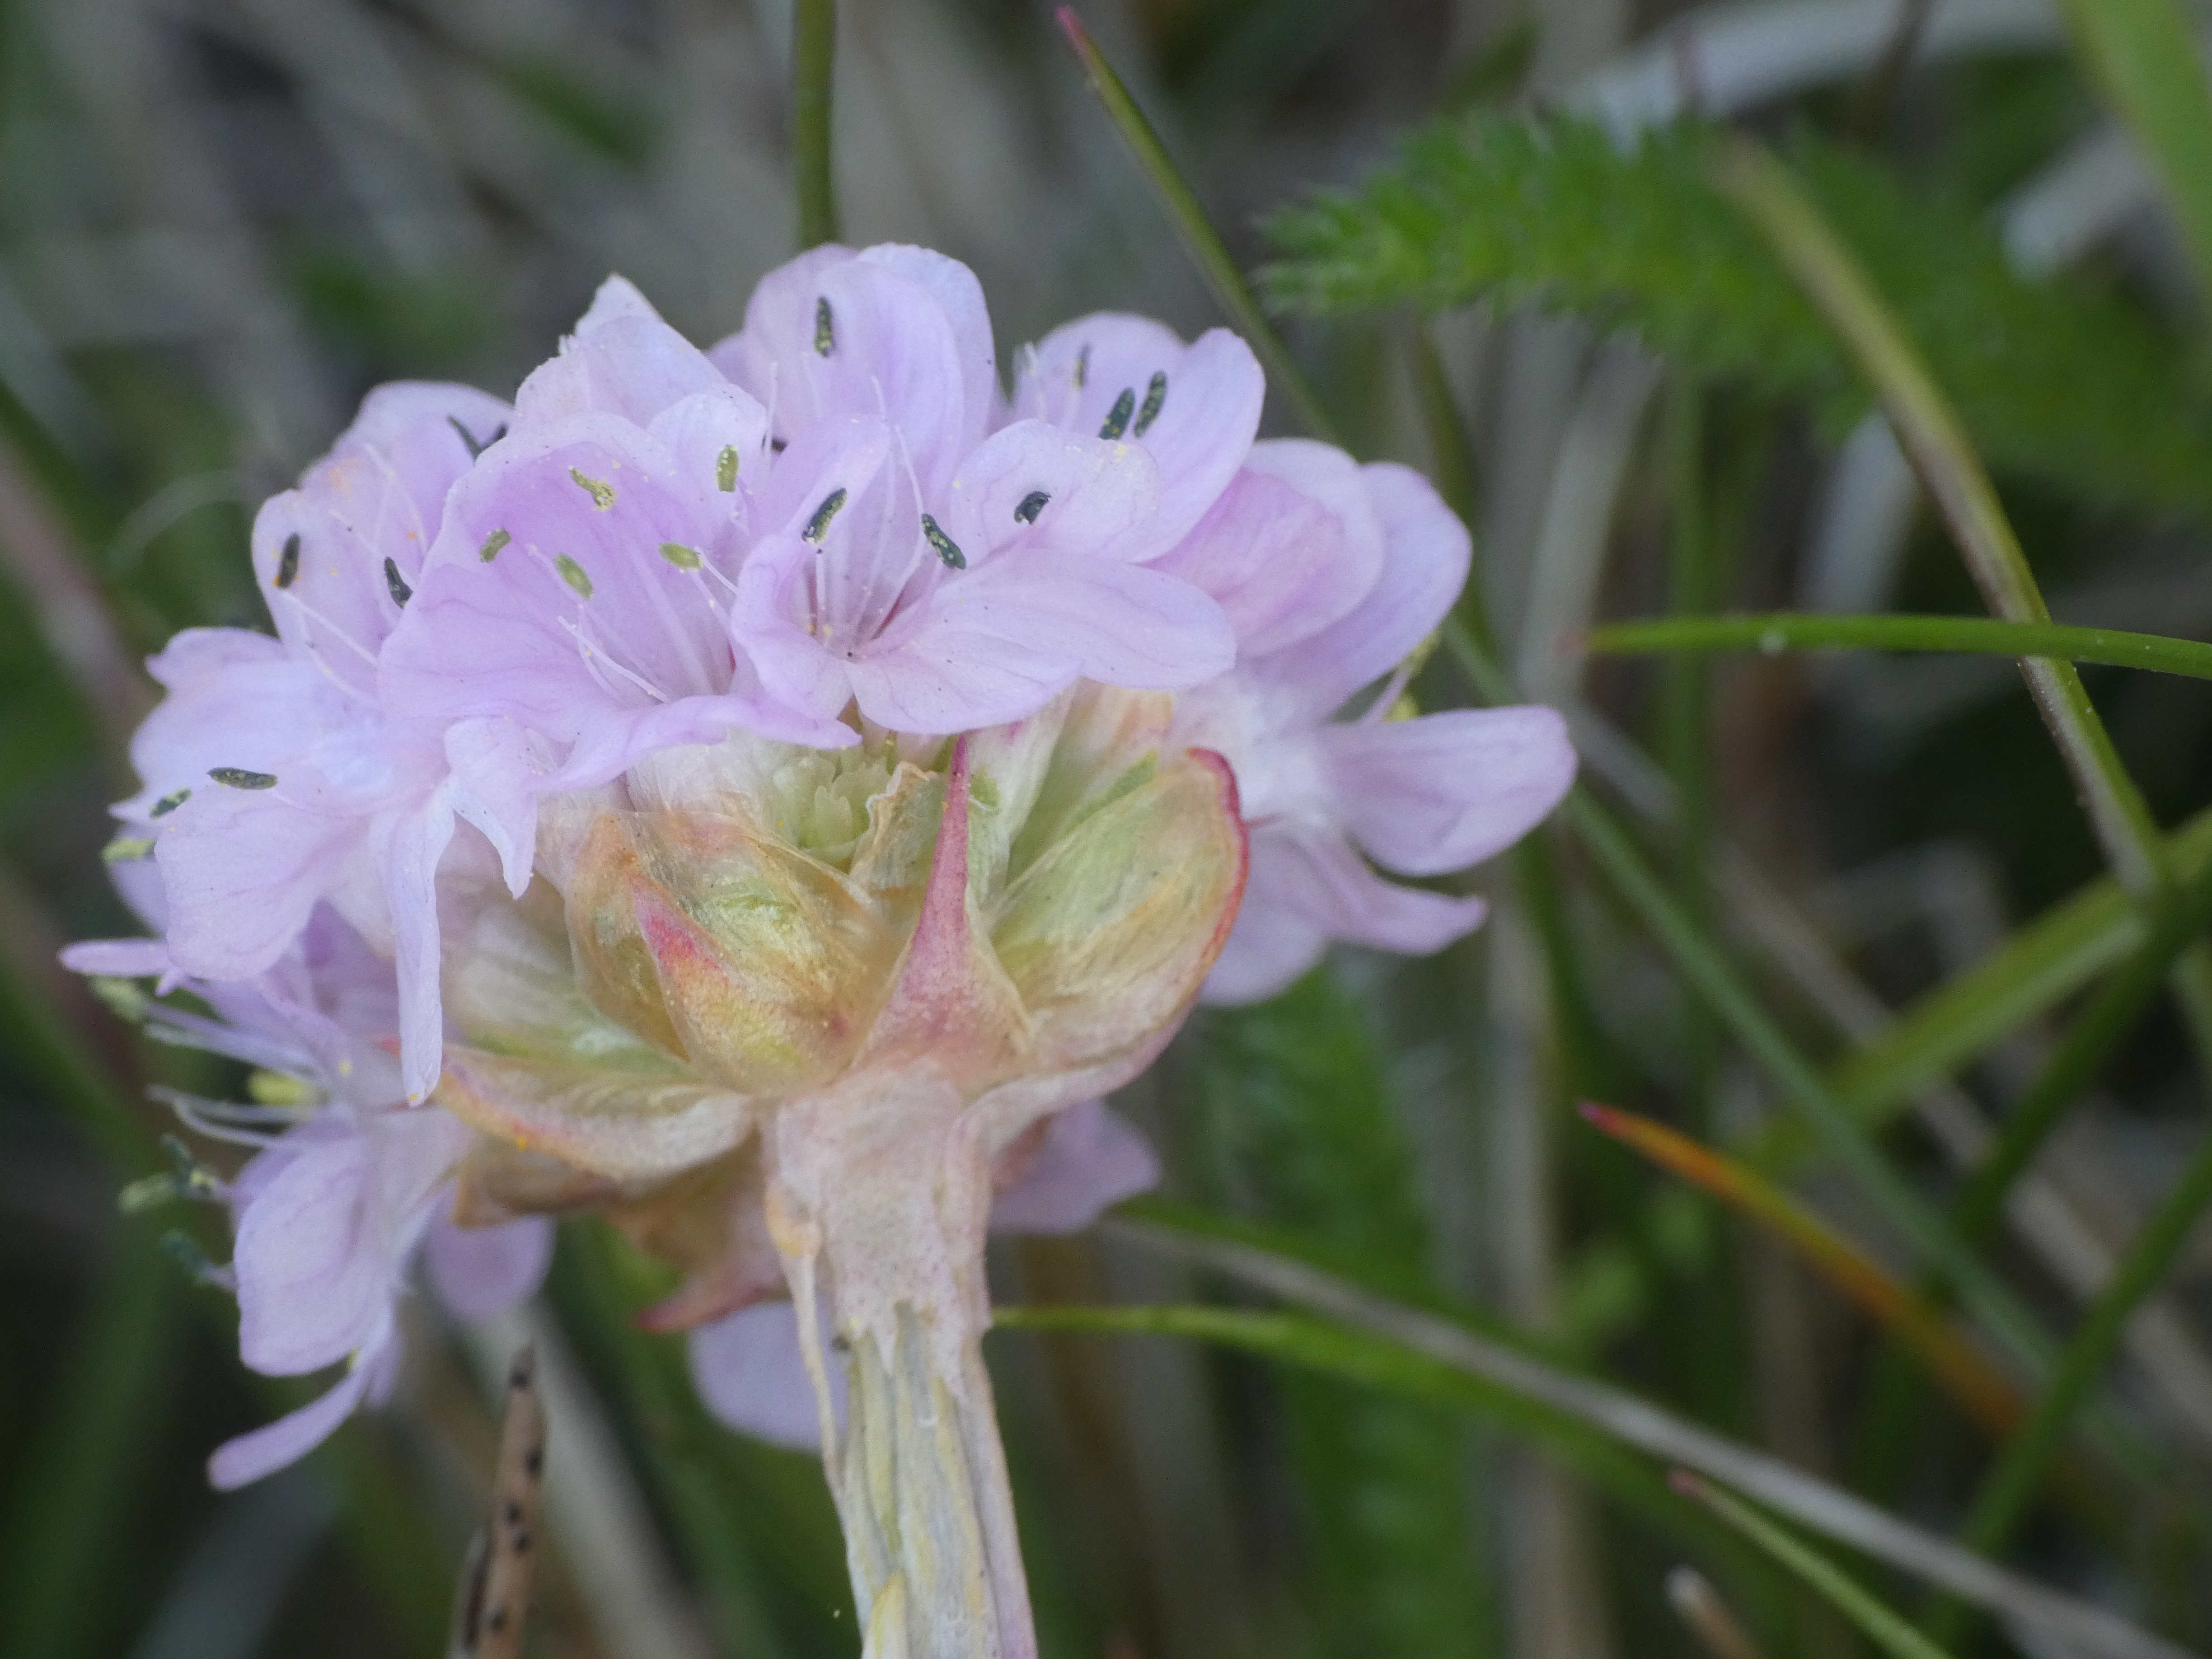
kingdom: Plantae
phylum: Tracheophyta
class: Magnoliopsida
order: Caryophyllales
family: Plumbaginaceae
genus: Armeria
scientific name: Armeria maritima
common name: Engelskgræs
